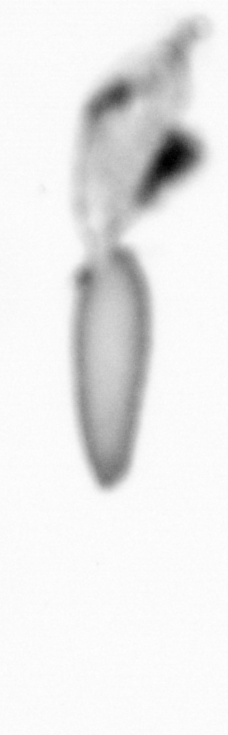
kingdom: Animalia
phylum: Arthropoda
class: Copepoda
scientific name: Copepoda
